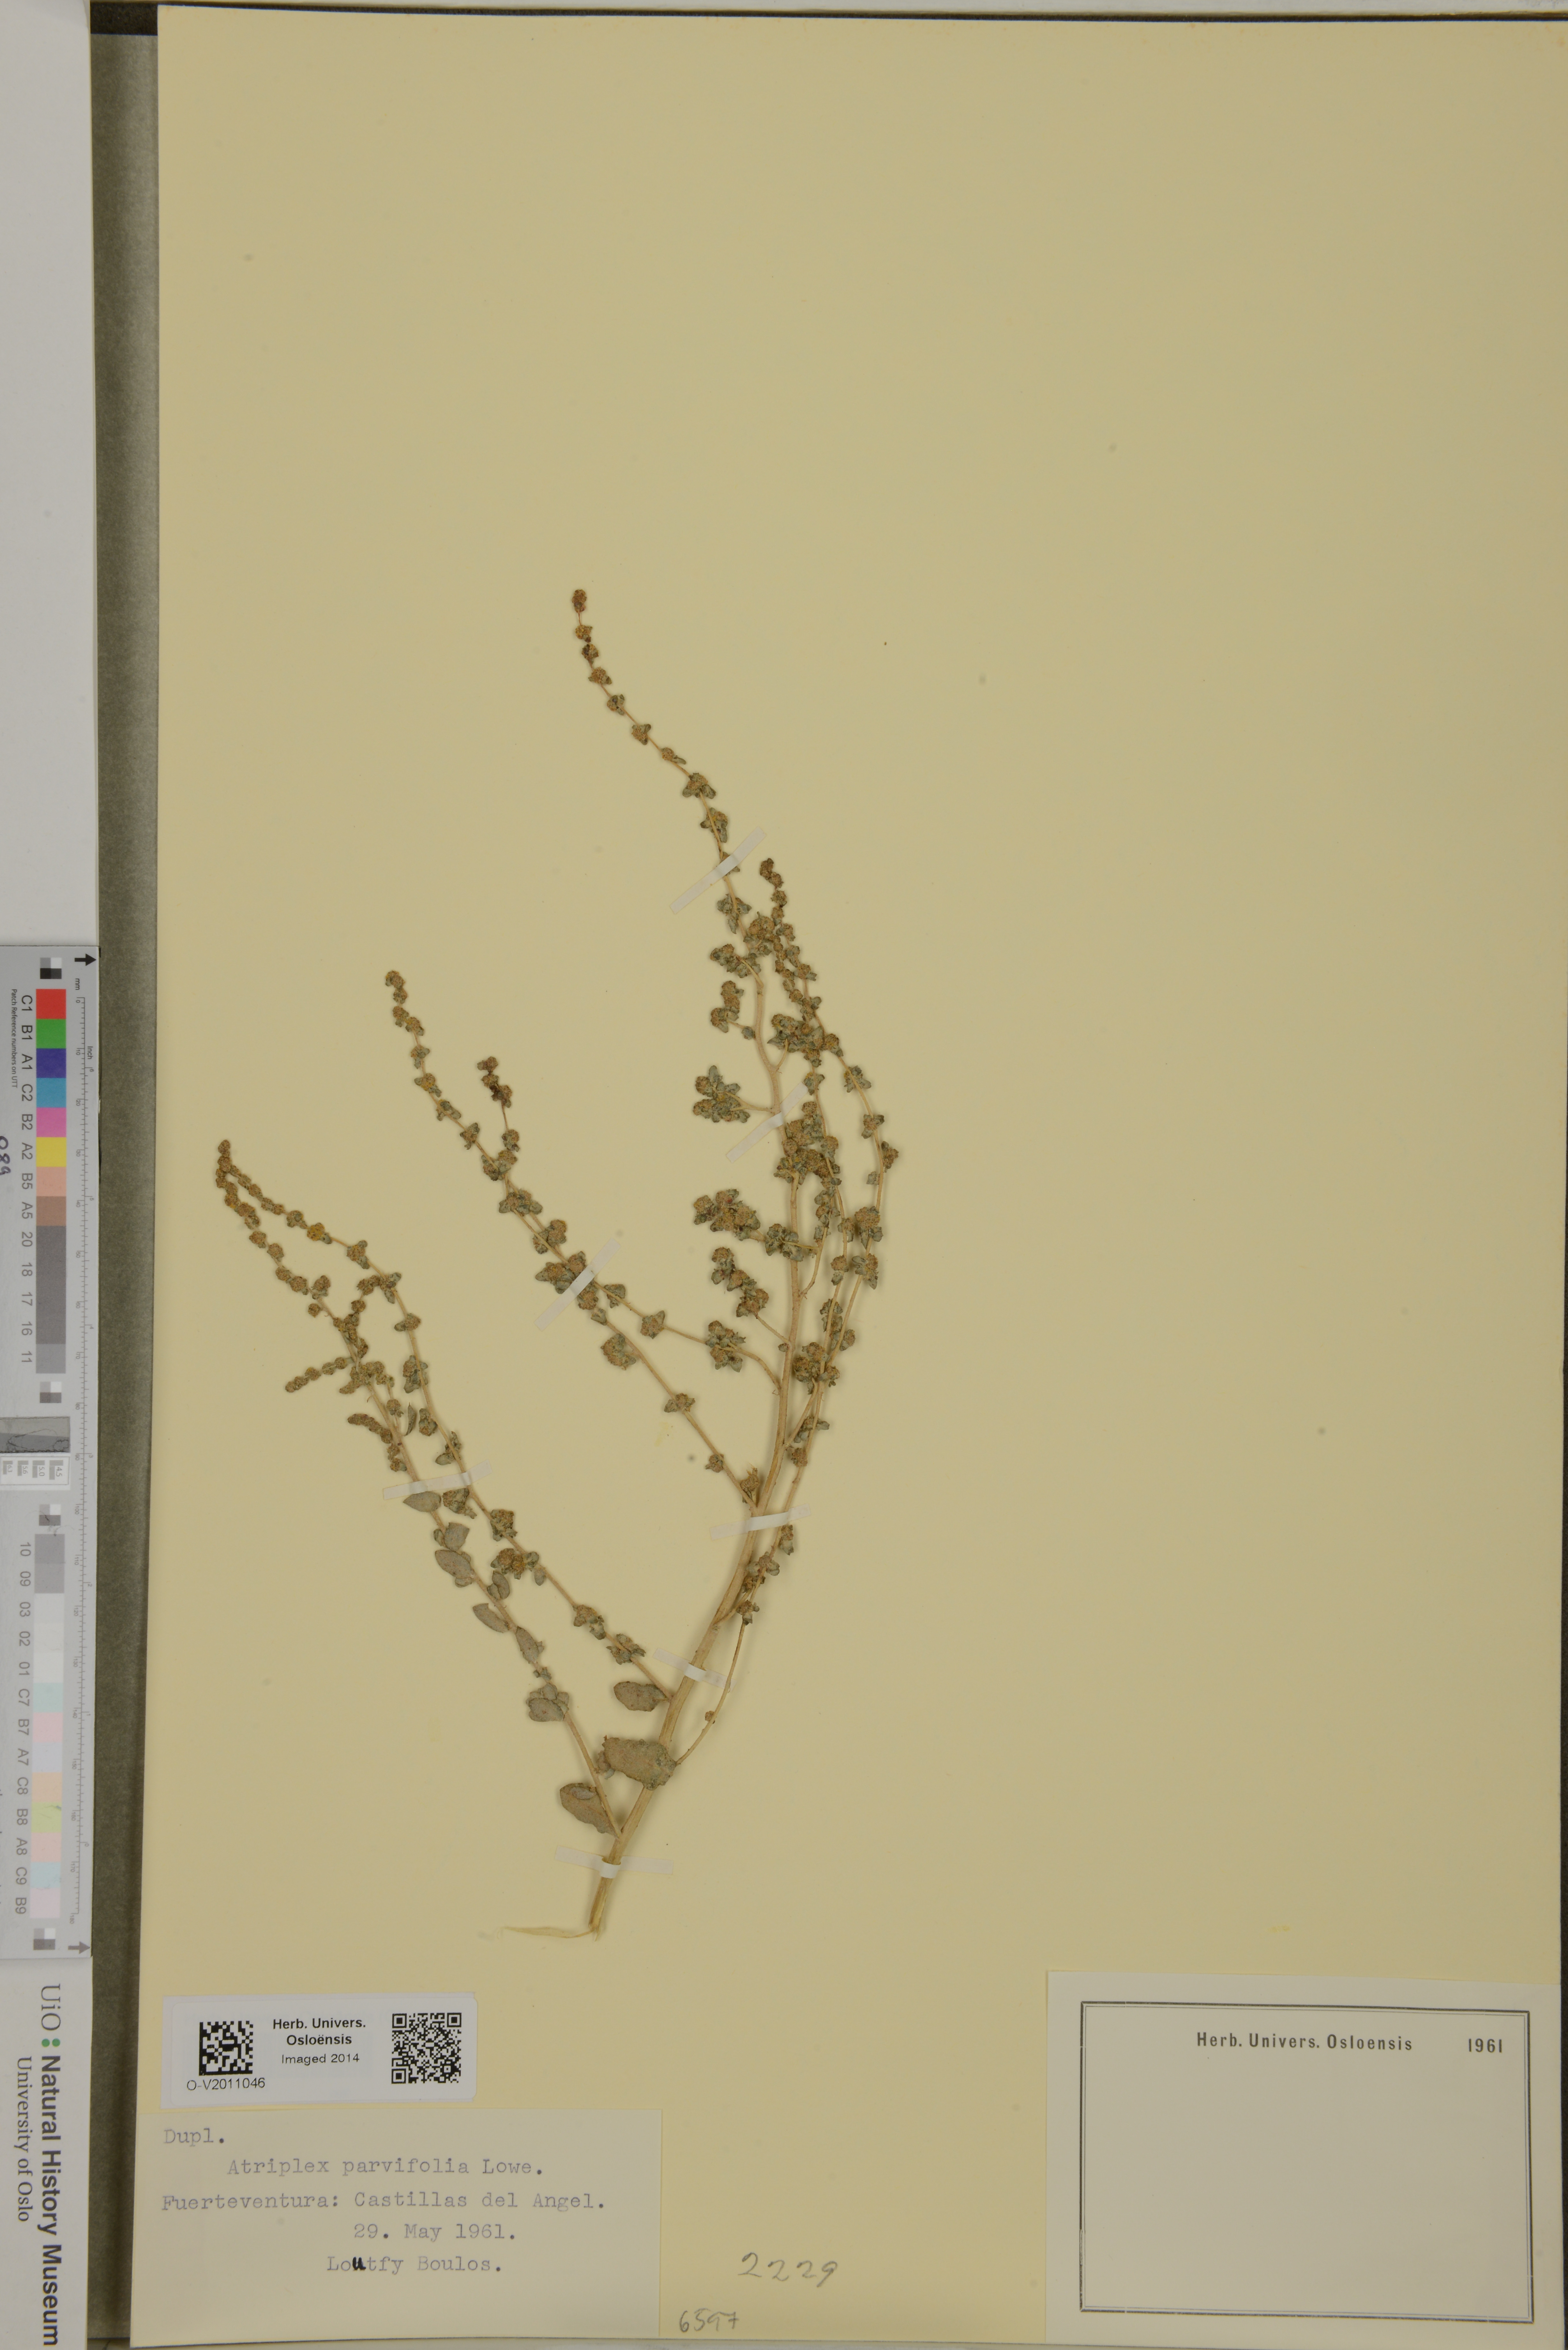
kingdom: Plantae
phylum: Tracheophyta
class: Magnoliopsida
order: Caryophyllales
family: Amaranthaceae
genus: Atriplex
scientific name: Atriplex glauca
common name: Waxy saltbush
